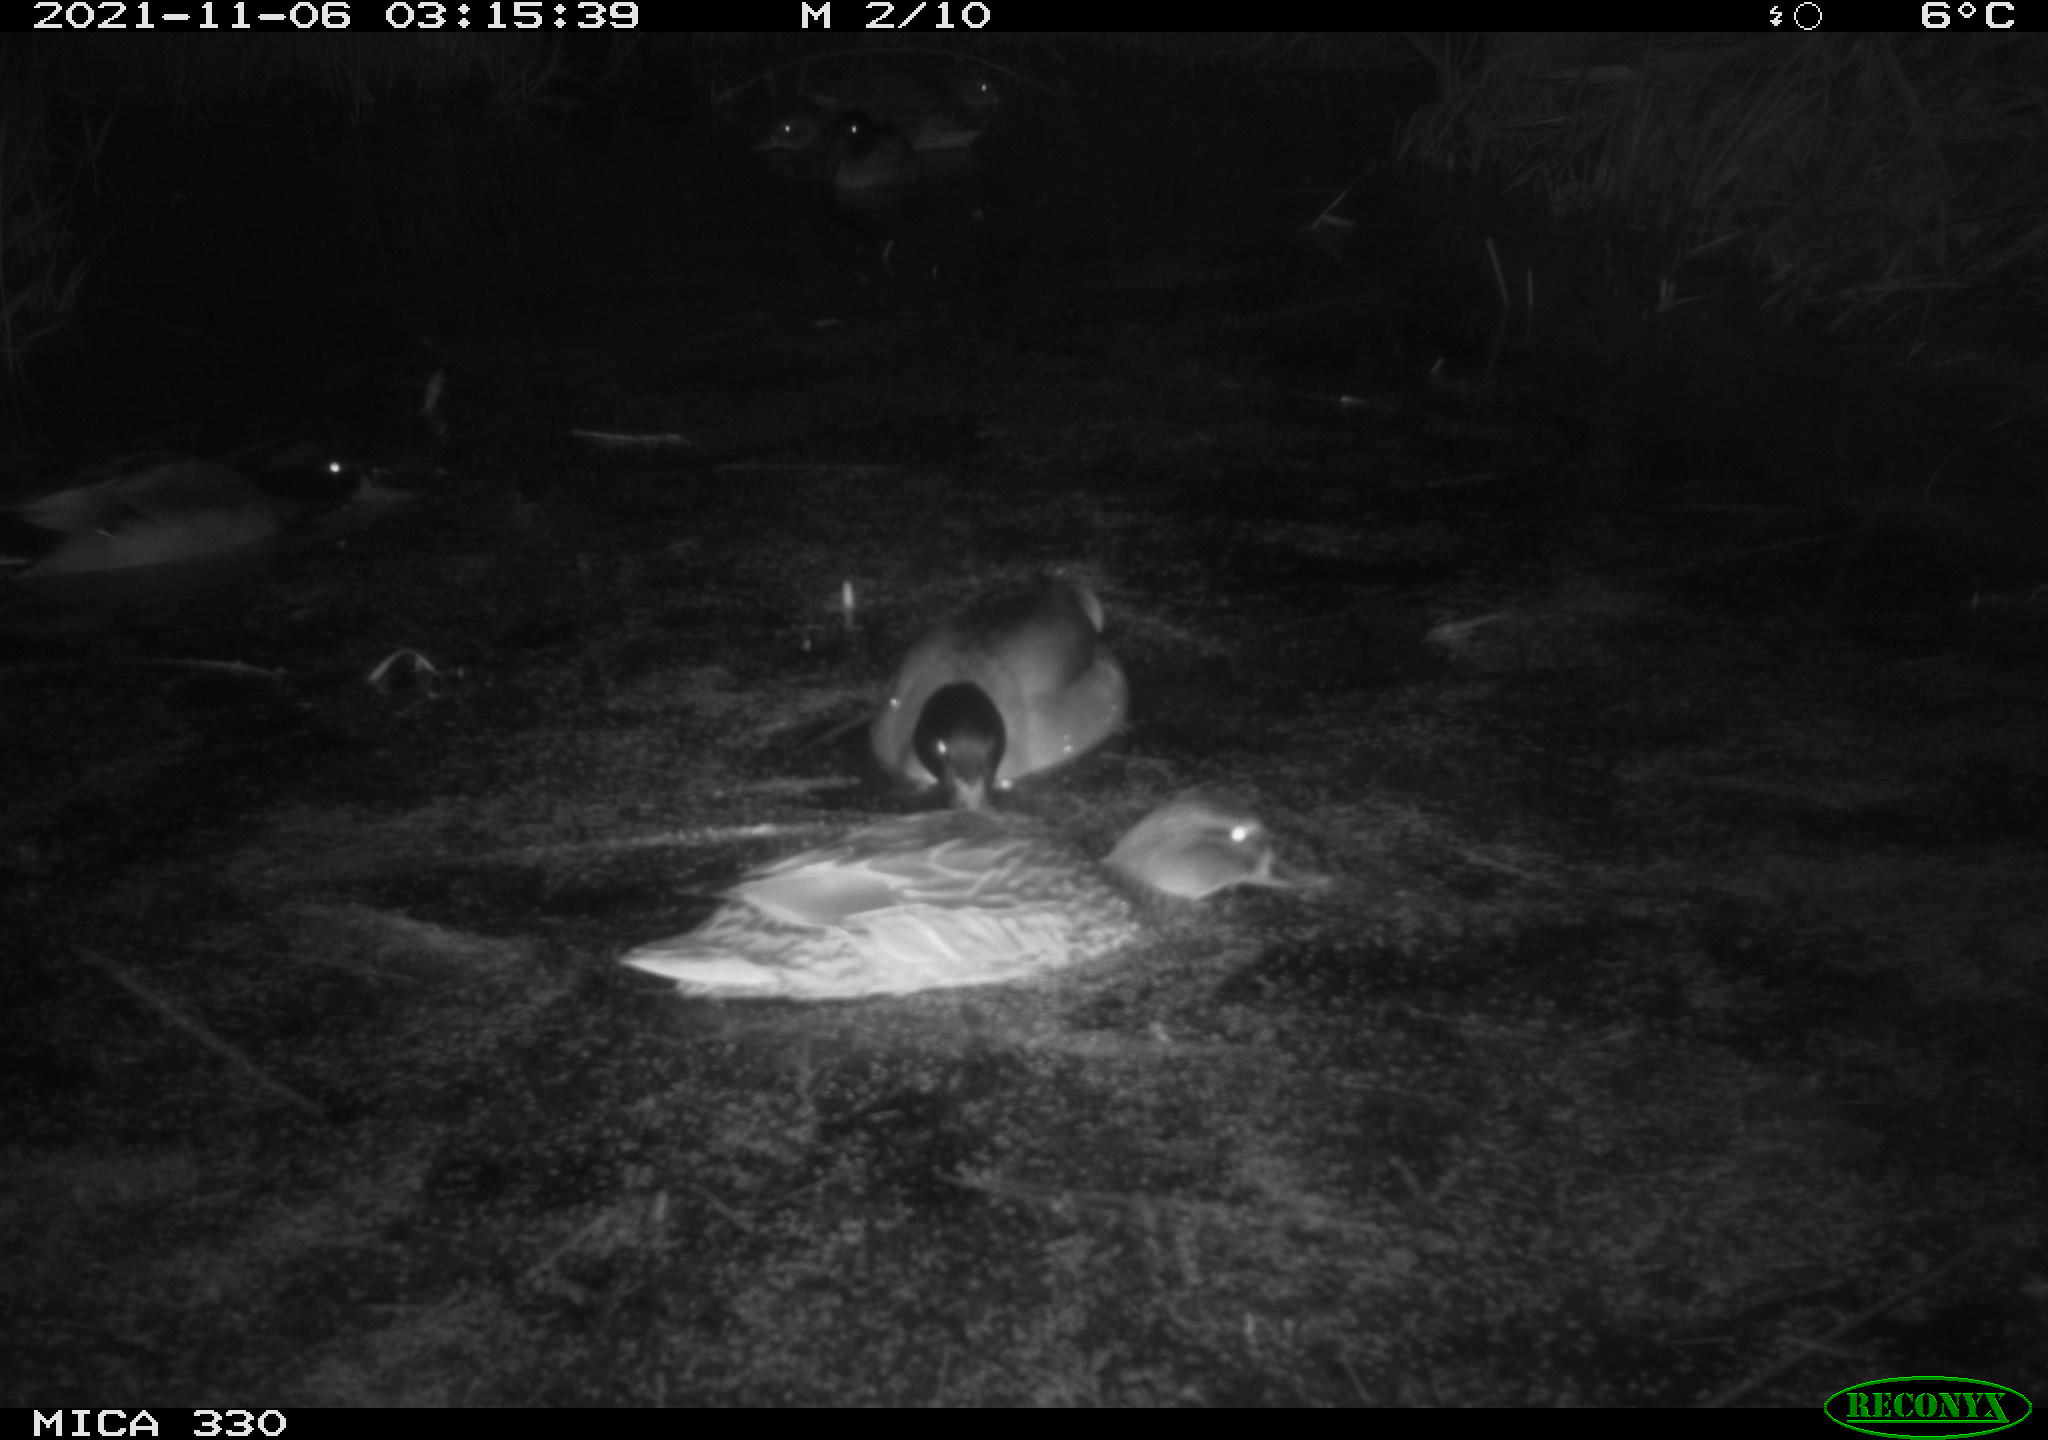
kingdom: Animalia
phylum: Chordata
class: Aves
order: Anseriformes
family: Anatidae
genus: Anas
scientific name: Anas platyrhynchos
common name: Mallard
